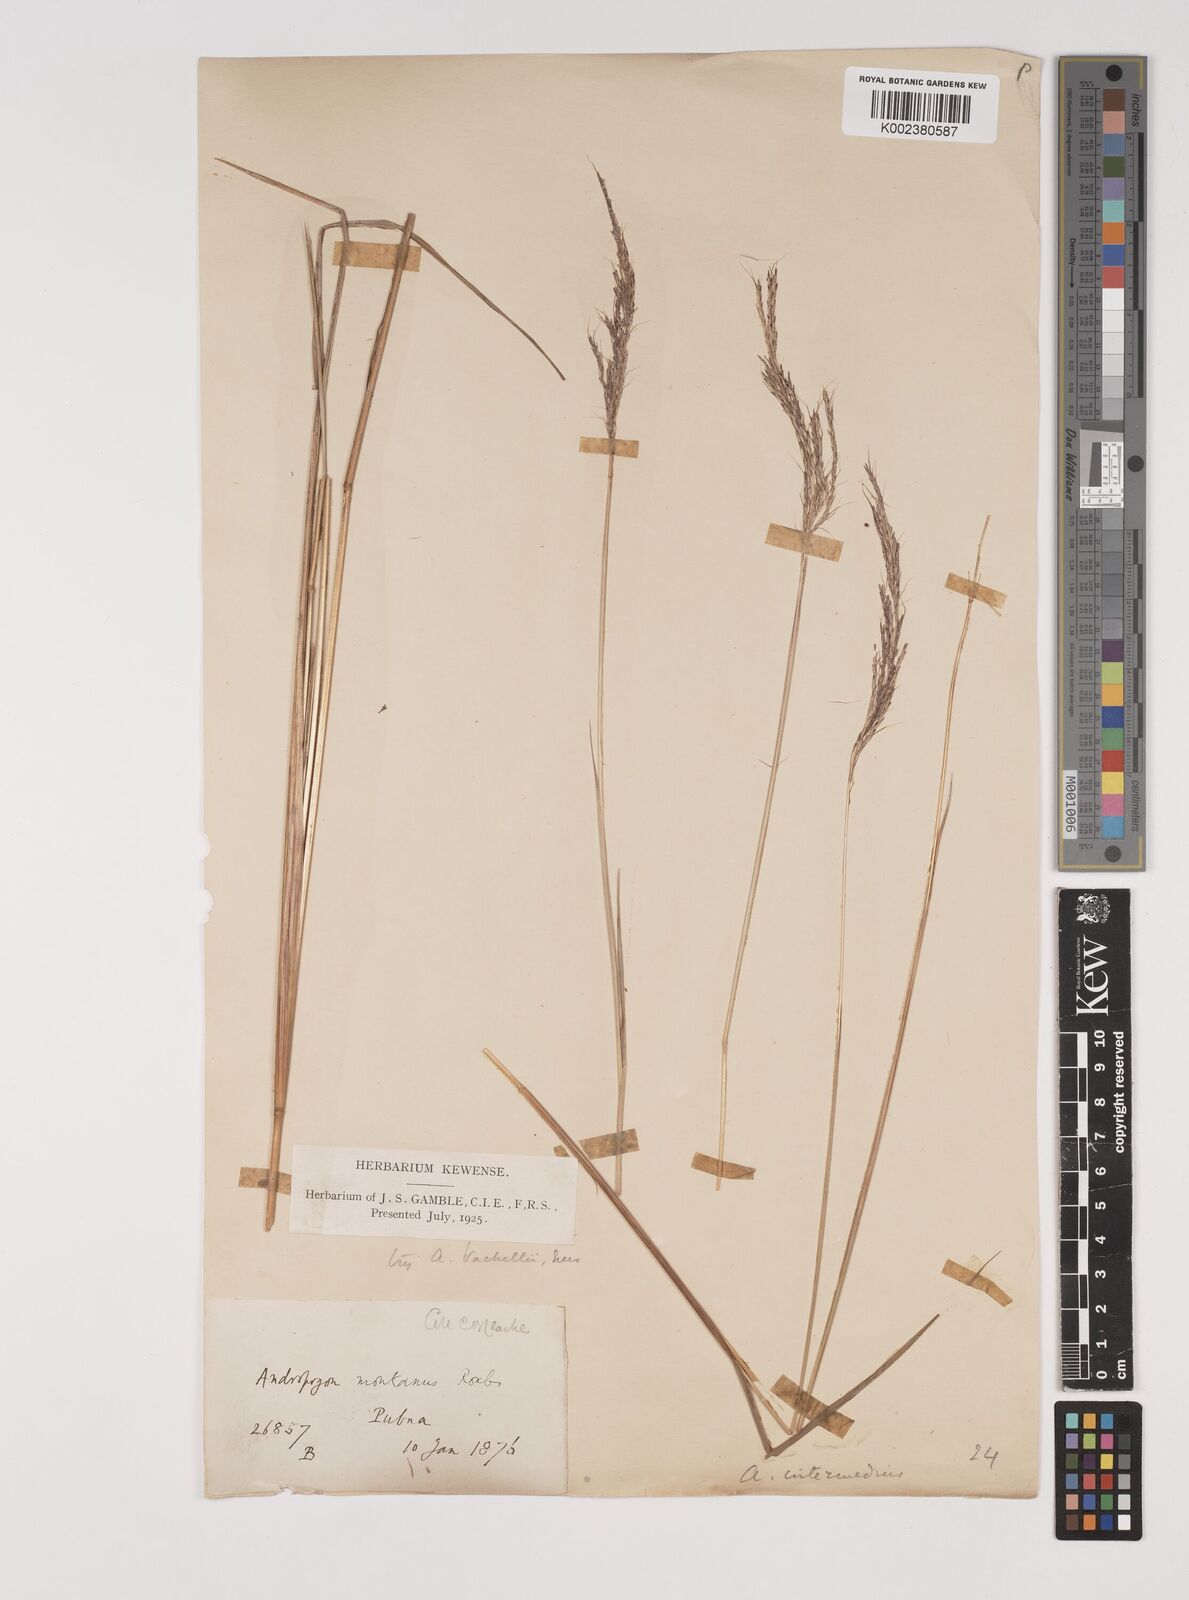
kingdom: Plantae
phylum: Tracheophyta
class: Liliopsida
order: Poales
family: Poaceae
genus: Bothriochloa
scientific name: Bothriochloa bladhii
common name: Caucasian bluestem
